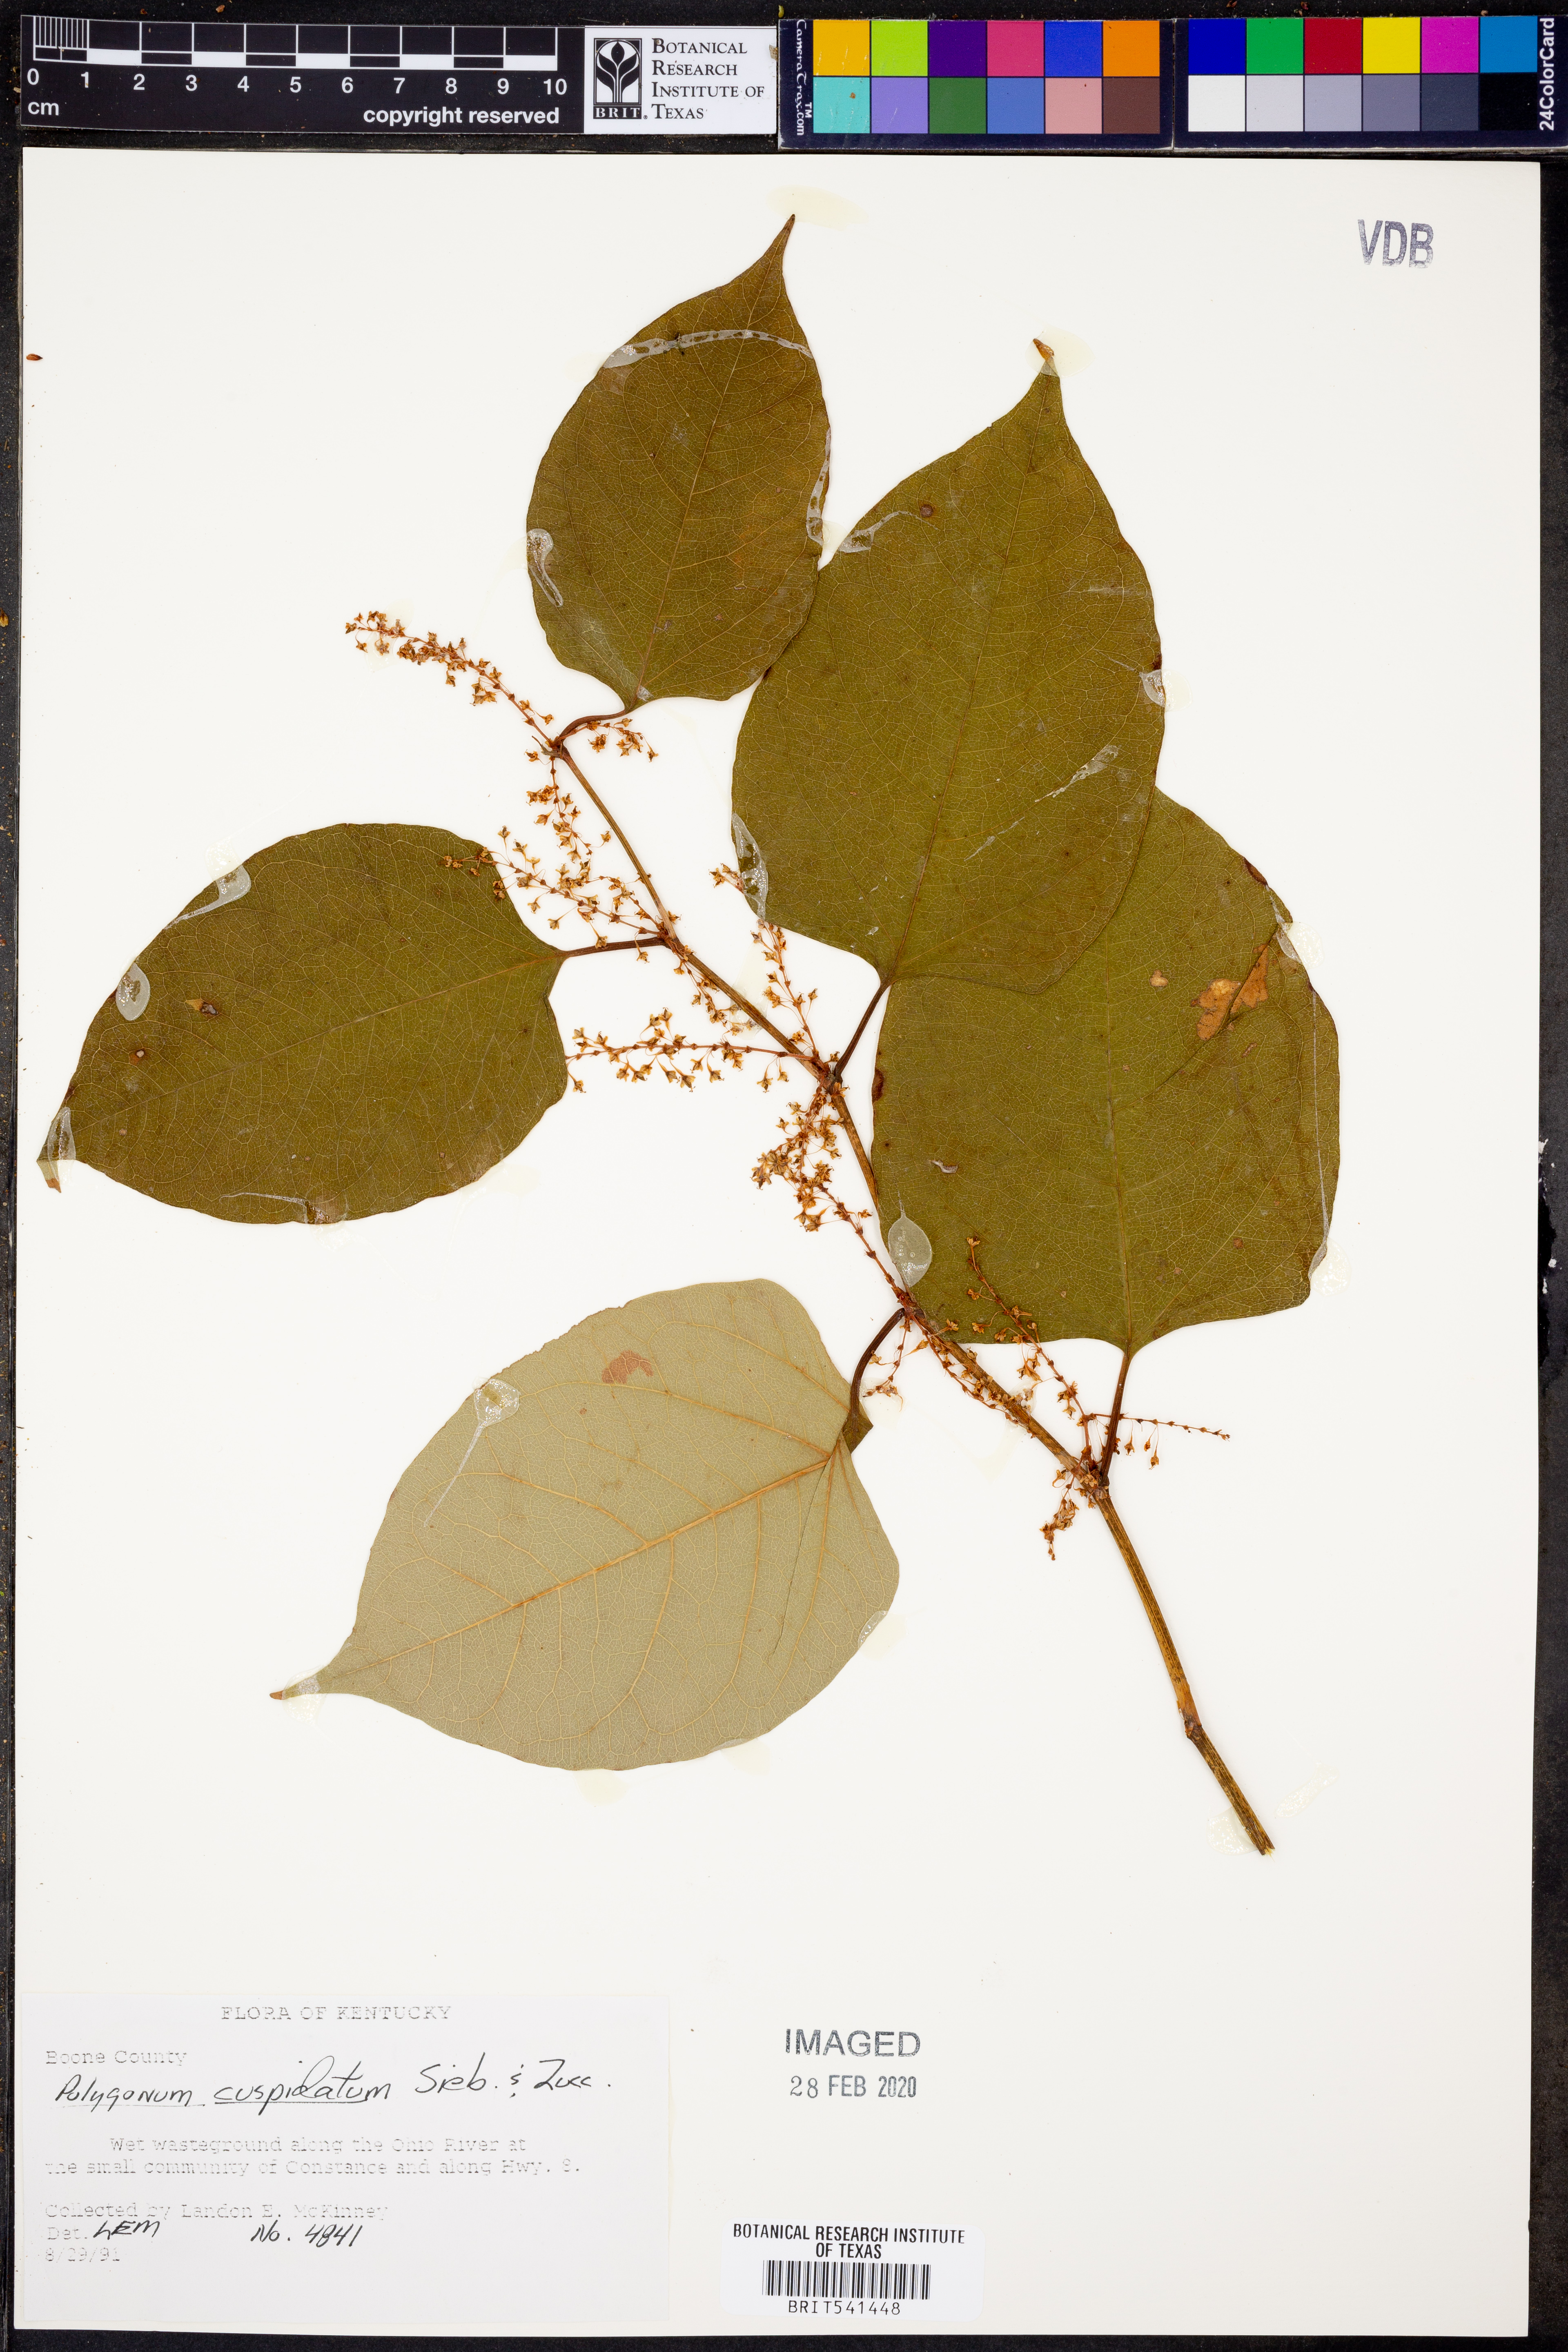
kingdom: Plantae
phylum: Tracheophyta
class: Magnoliopsida
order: Caryophyllales
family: Polygonaceae
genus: Reynoutria
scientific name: Reynoutria japonica
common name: Japanese knotweed
